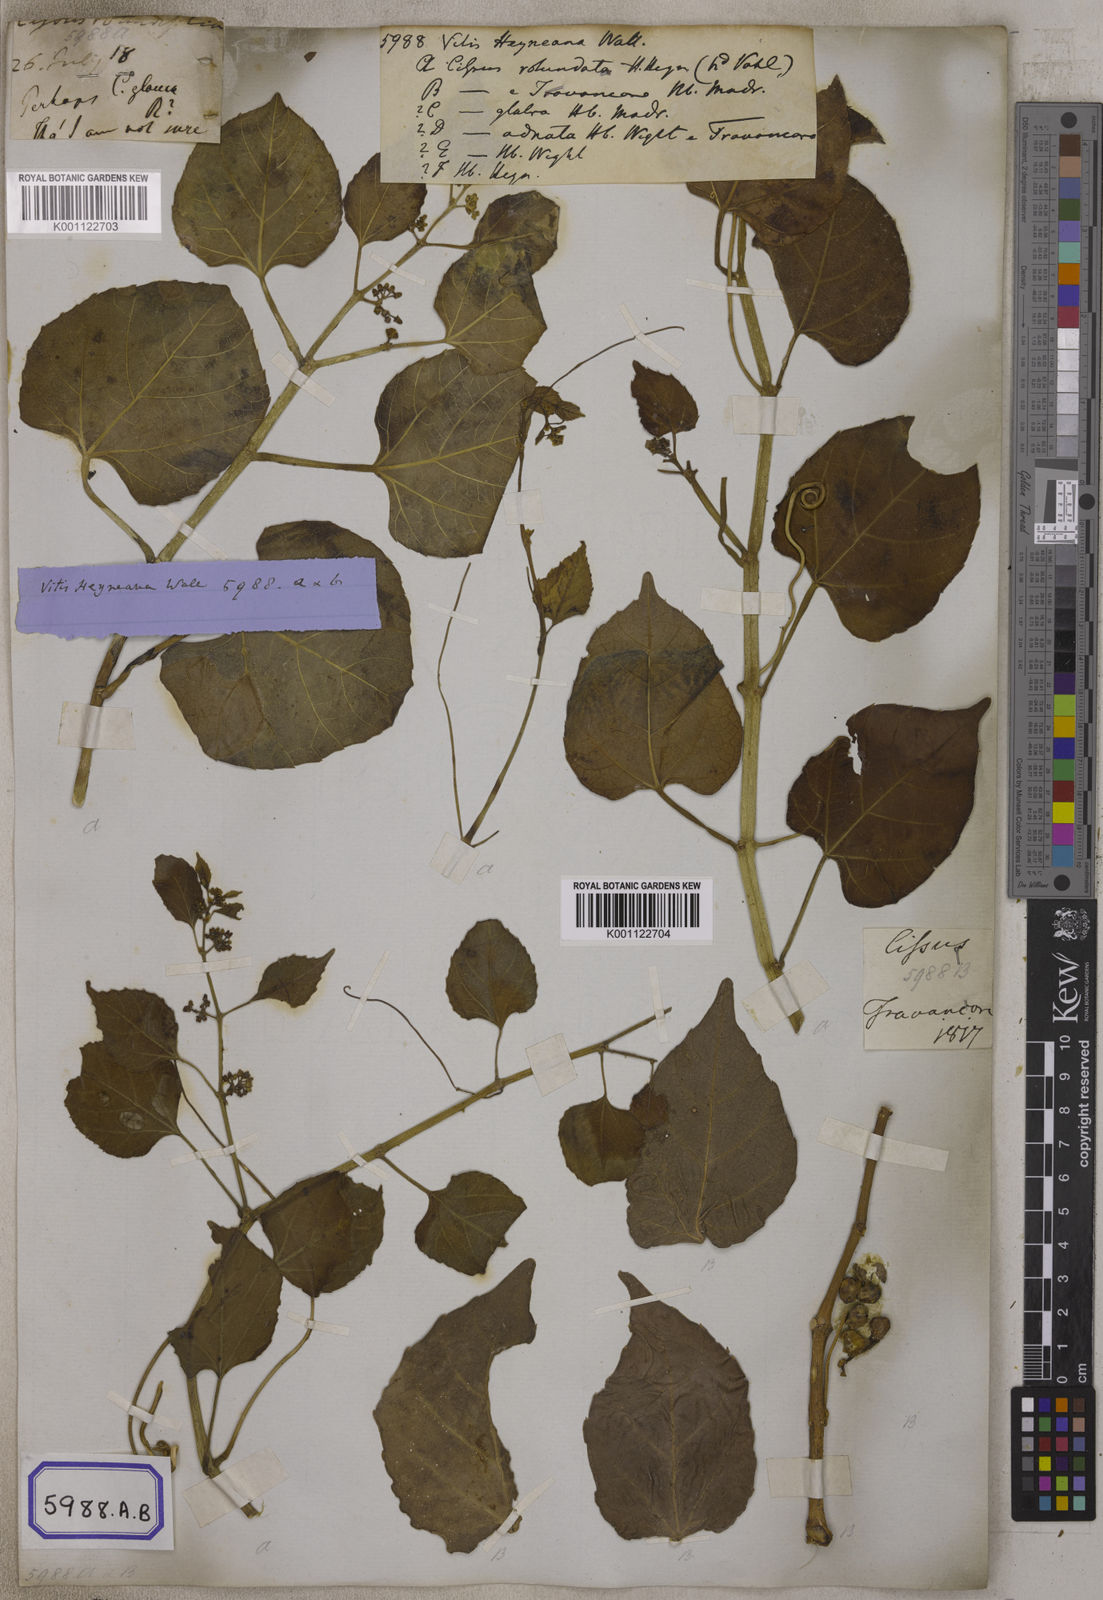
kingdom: Plantae
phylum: Tracheophyta
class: Magnoliopsida
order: Vitales
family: Vitaceae
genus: Vitis
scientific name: Vitis
